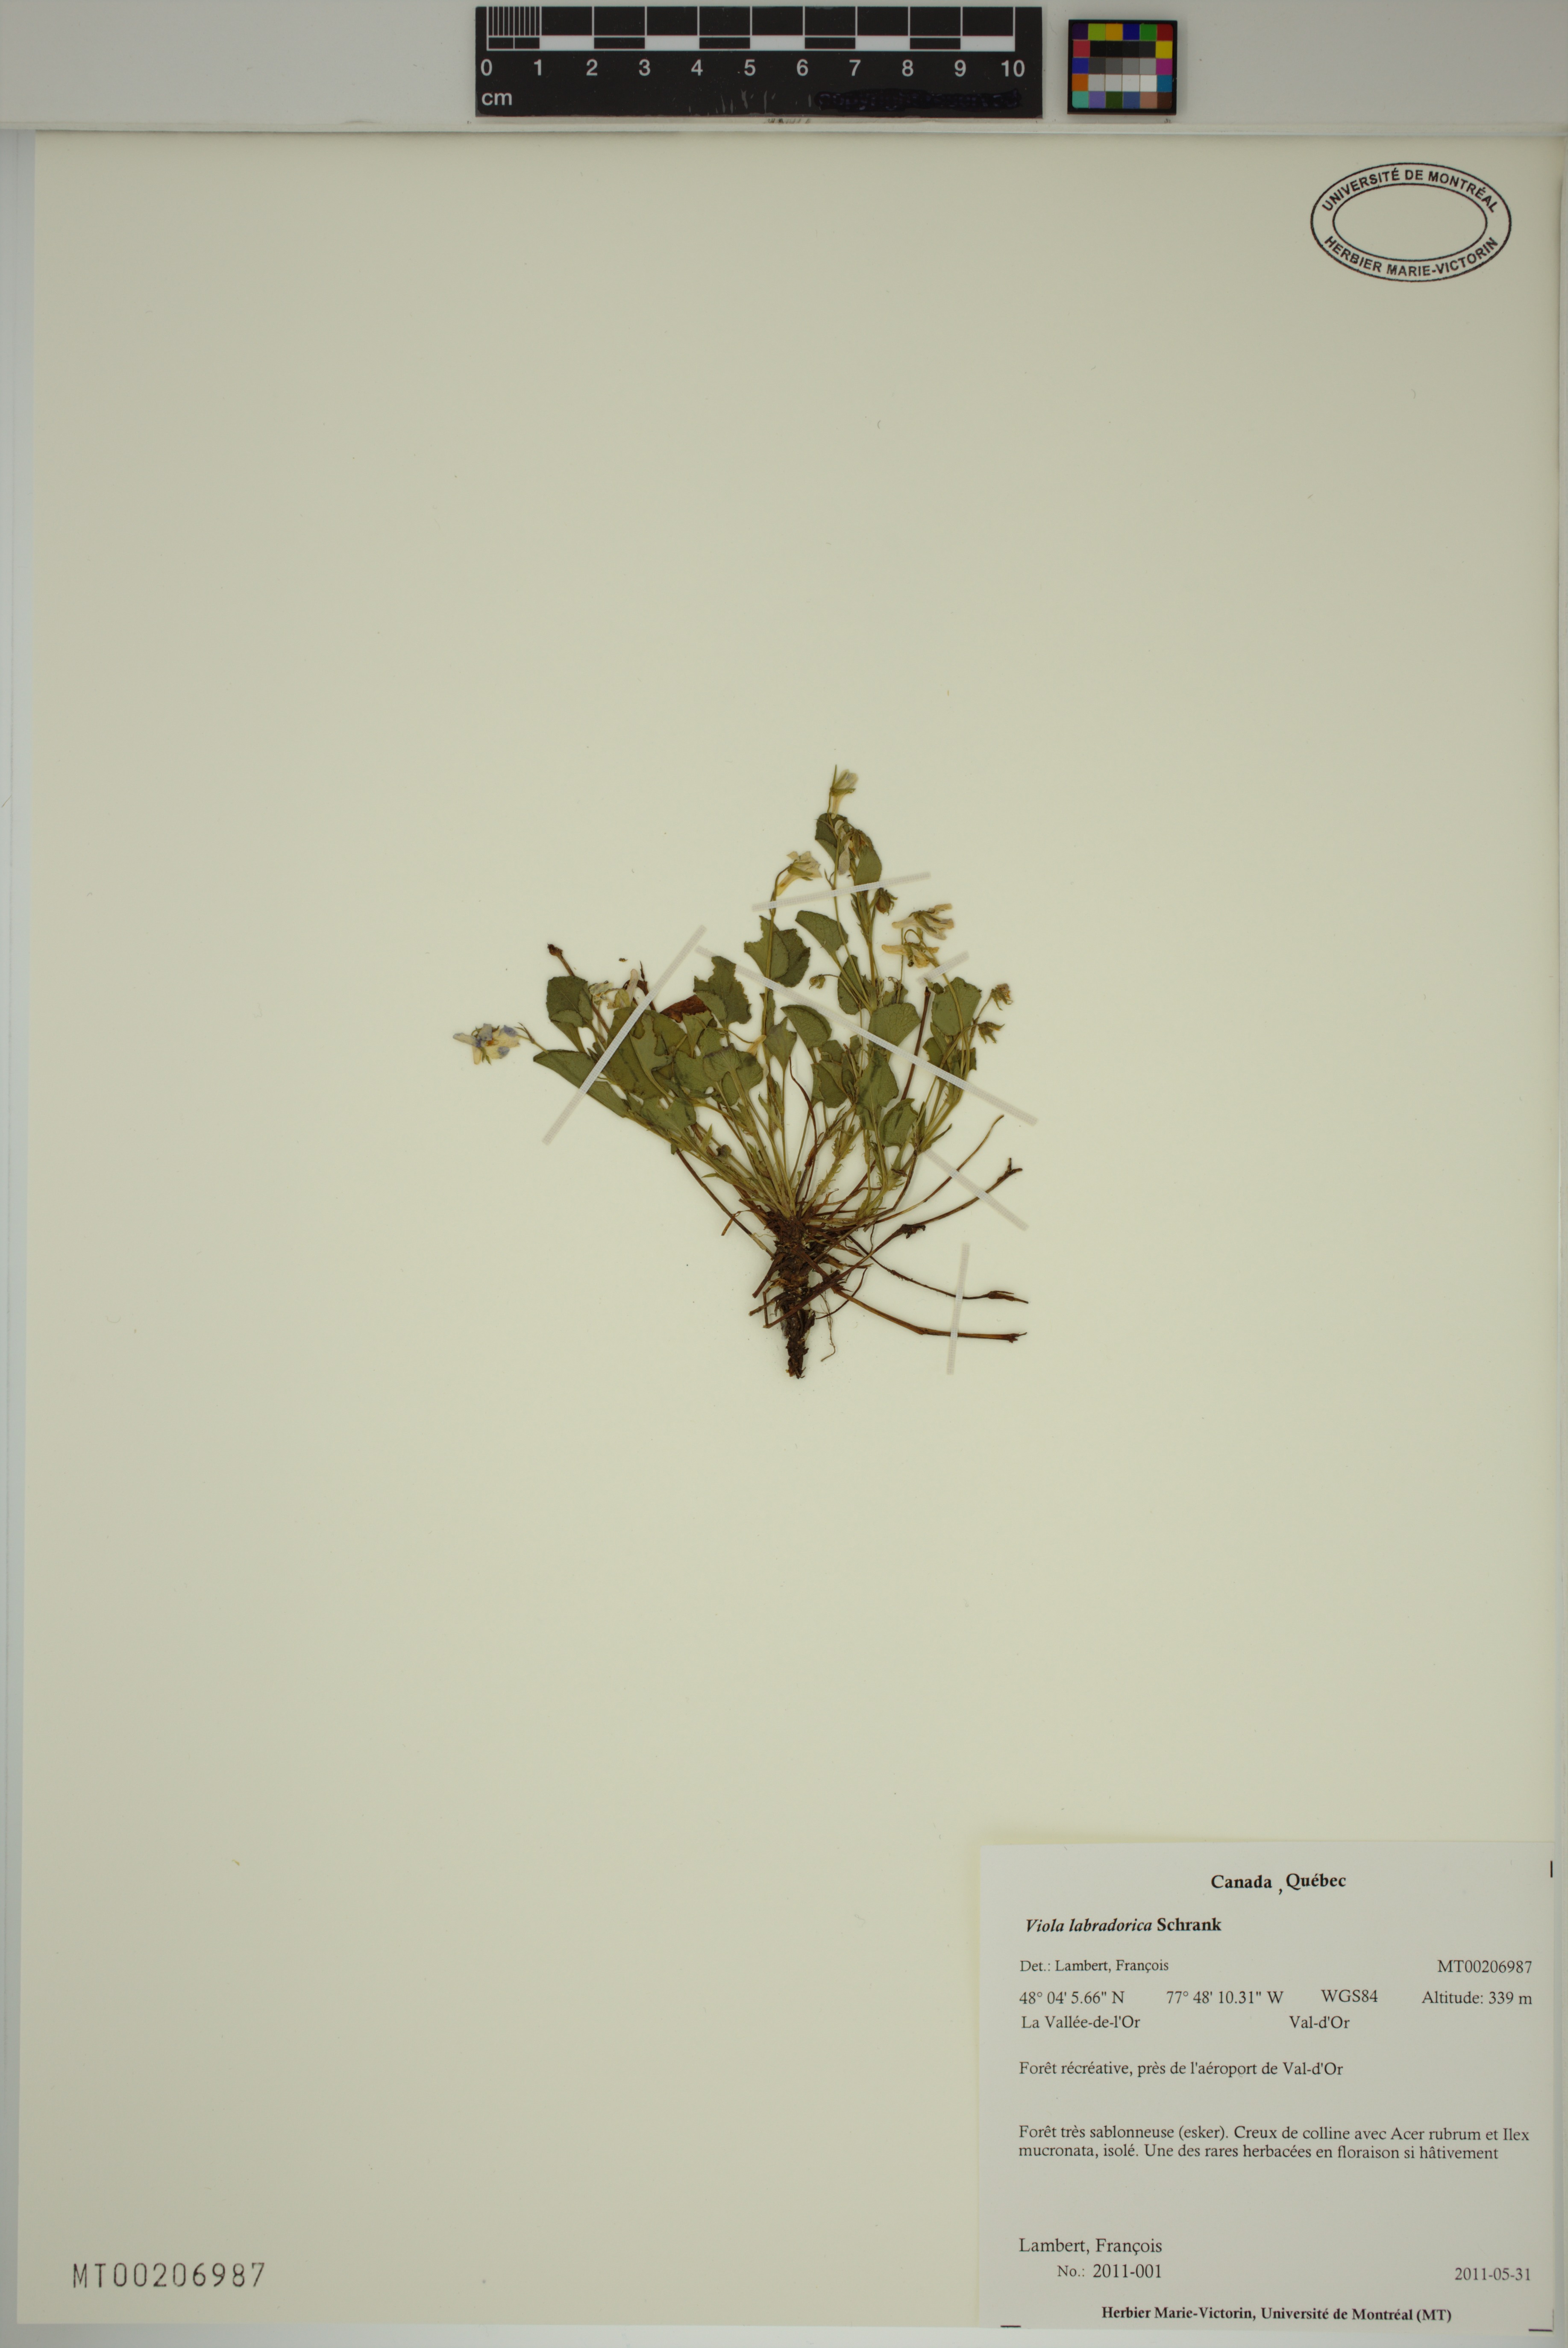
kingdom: Plantae
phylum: Tracheophyta
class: Magnoliopsida
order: Malpighiales
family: Violaceae
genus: Viola
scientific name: Viola labradorica
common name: Labrador violet
